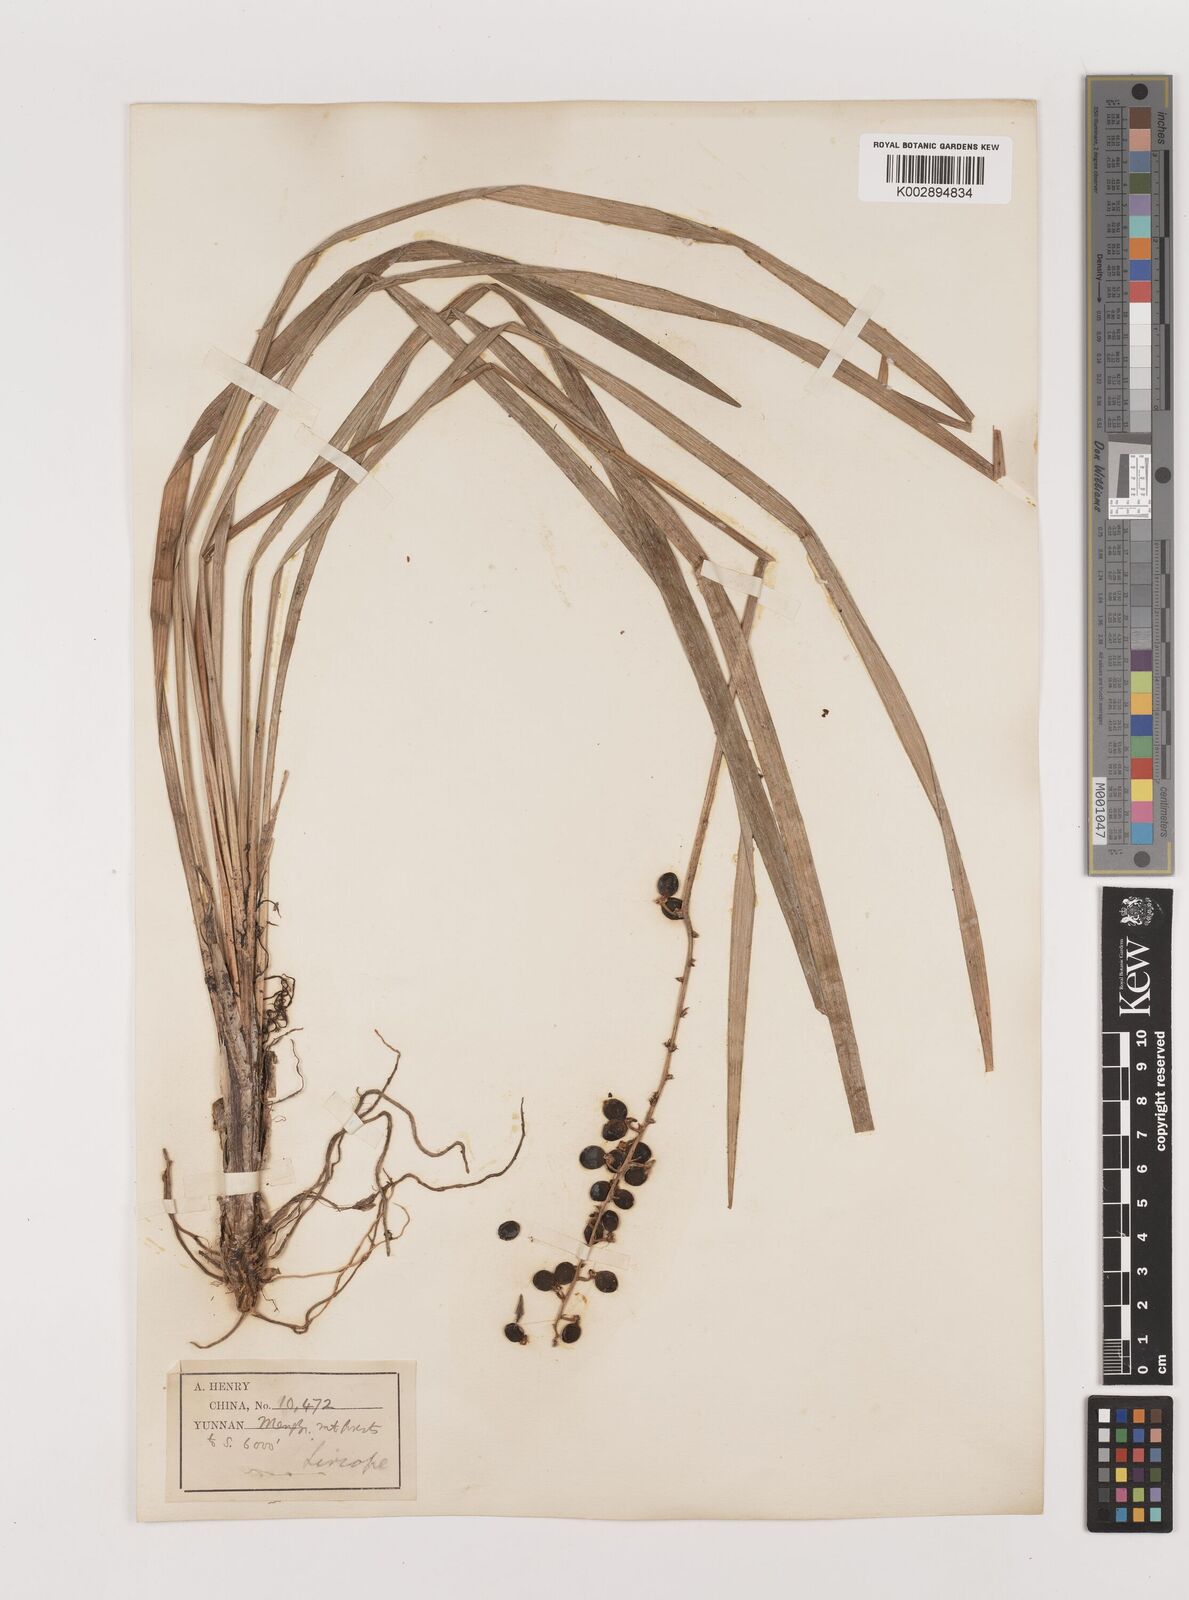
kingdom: Plantae
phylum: Tracheophyta
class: Liliopsida
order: Asparagales
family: Asparagaceae
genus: Ophiopogon
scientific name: Ophiopogon
